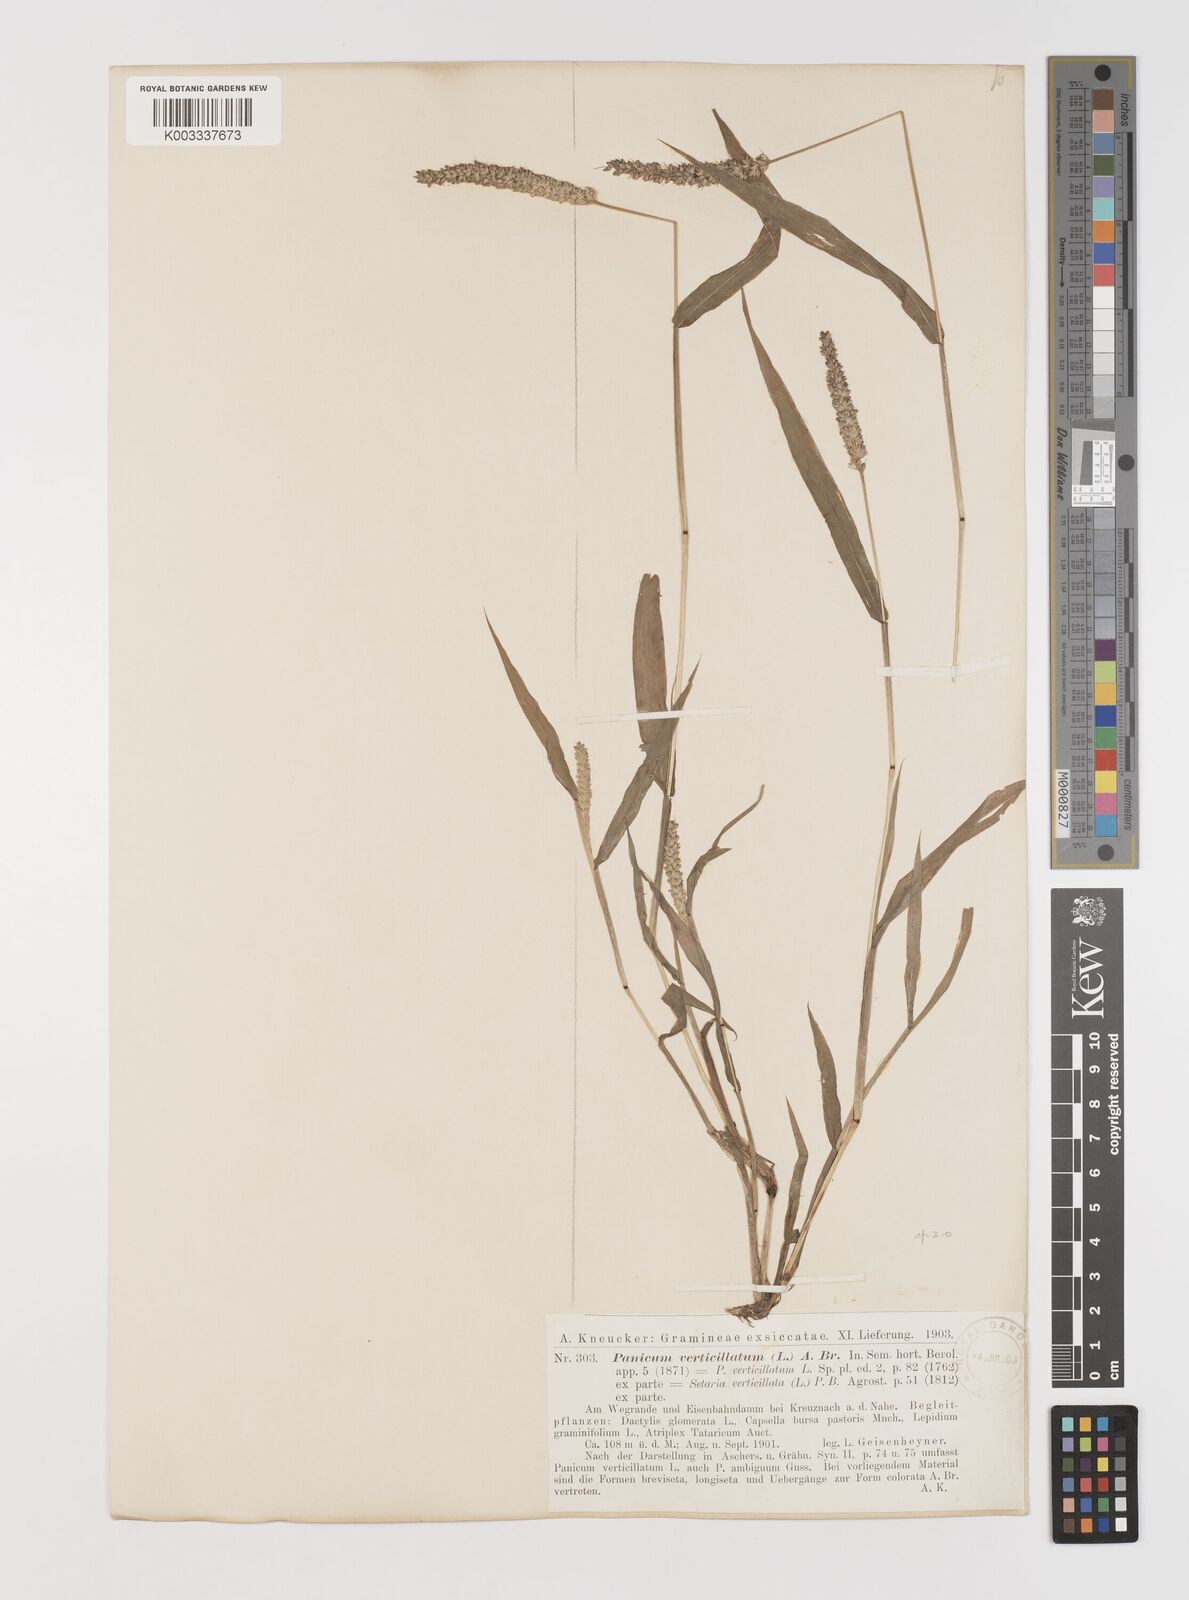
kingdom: Plantae
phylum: Tracheophyta
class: Liliopsida
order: Poales
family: Poaceae
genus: Setaria
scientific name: Setaria verticillata
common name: Hooked bristlegrass
